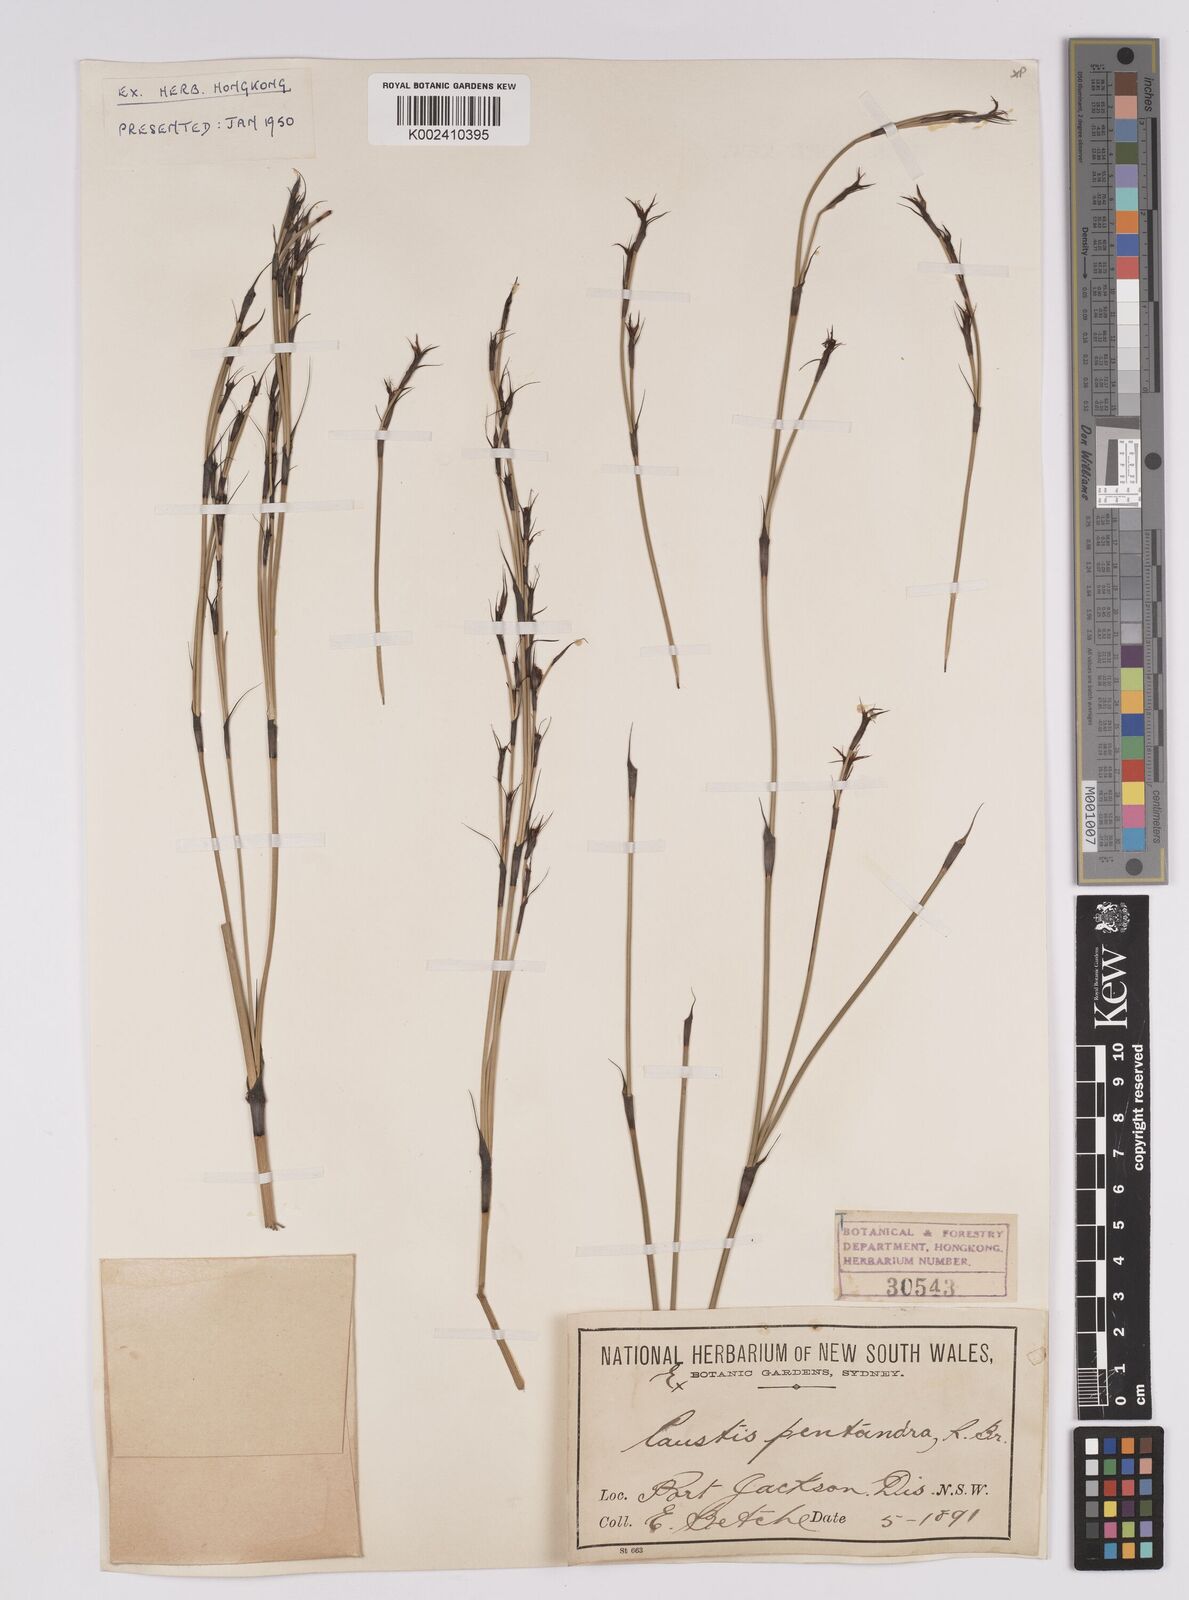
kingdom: Plantae
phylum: Tracheophyta
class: Liliopsida
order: Poales
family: Cyperaceae
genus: Caustis
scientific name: Caustis pentandra
